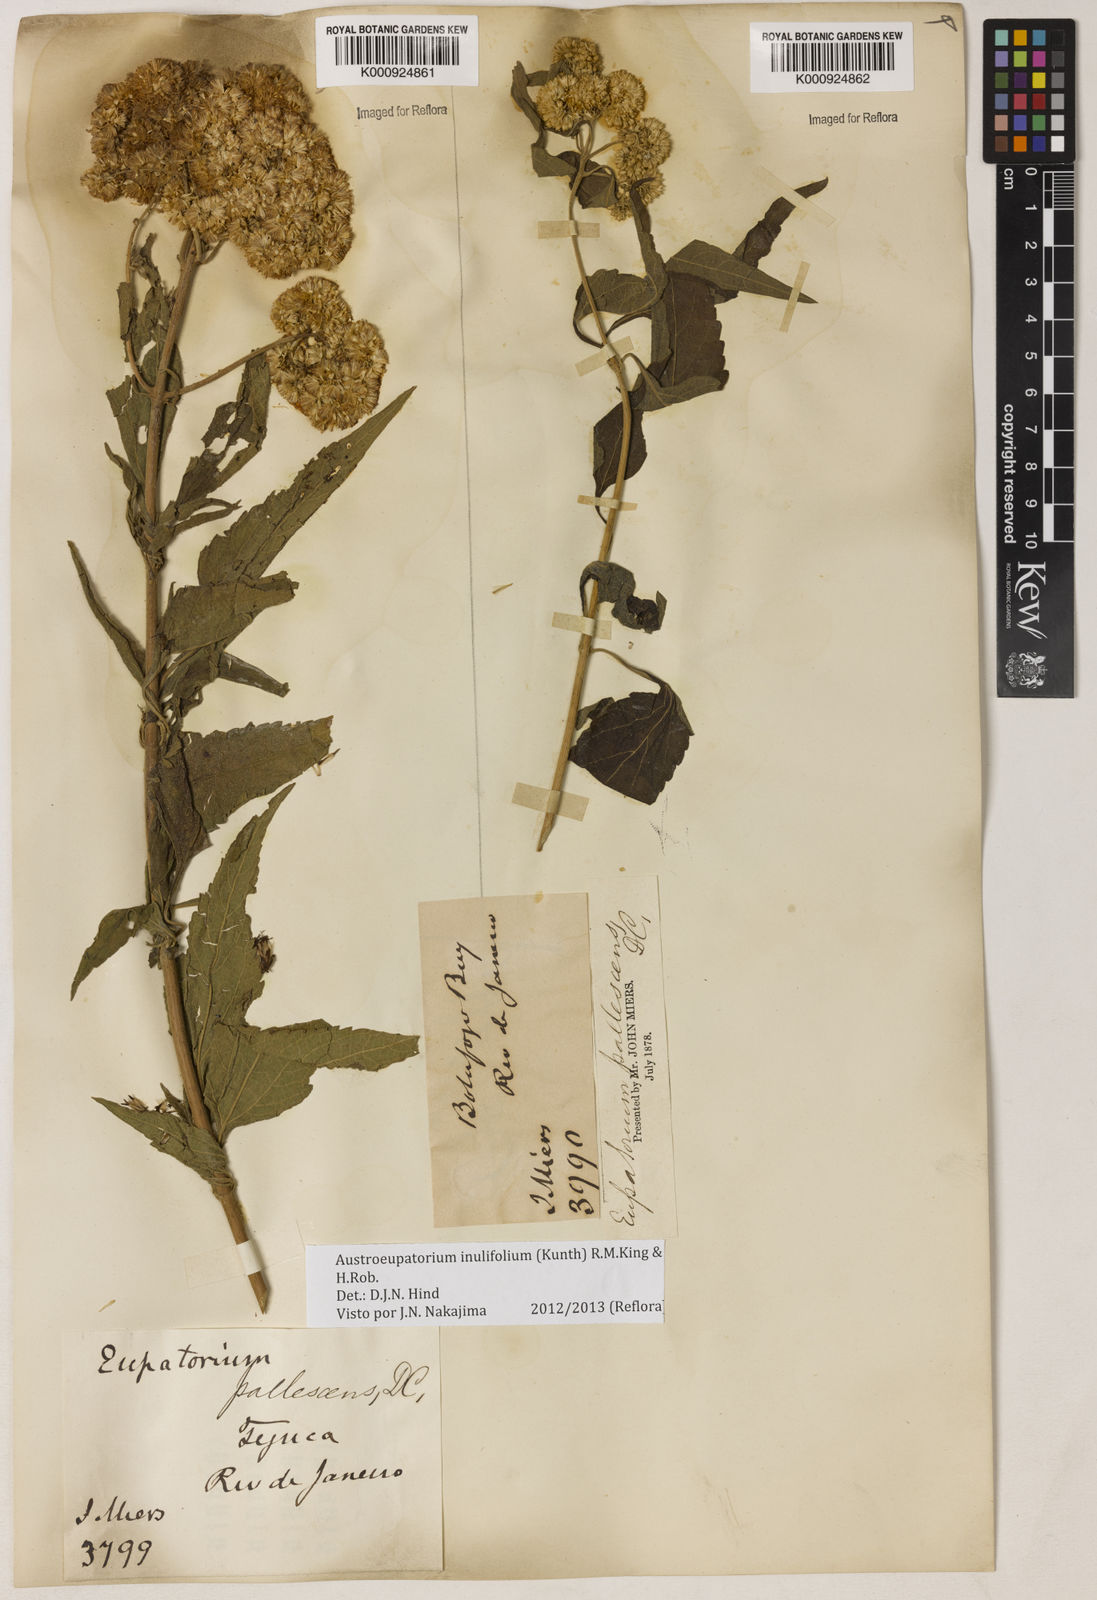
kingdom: Plantae
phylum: Tracheophyta
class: Magnoliopsida
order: Asterales
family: Asteraceae
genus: Austroeupatorium
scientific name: Austroeupatorium
